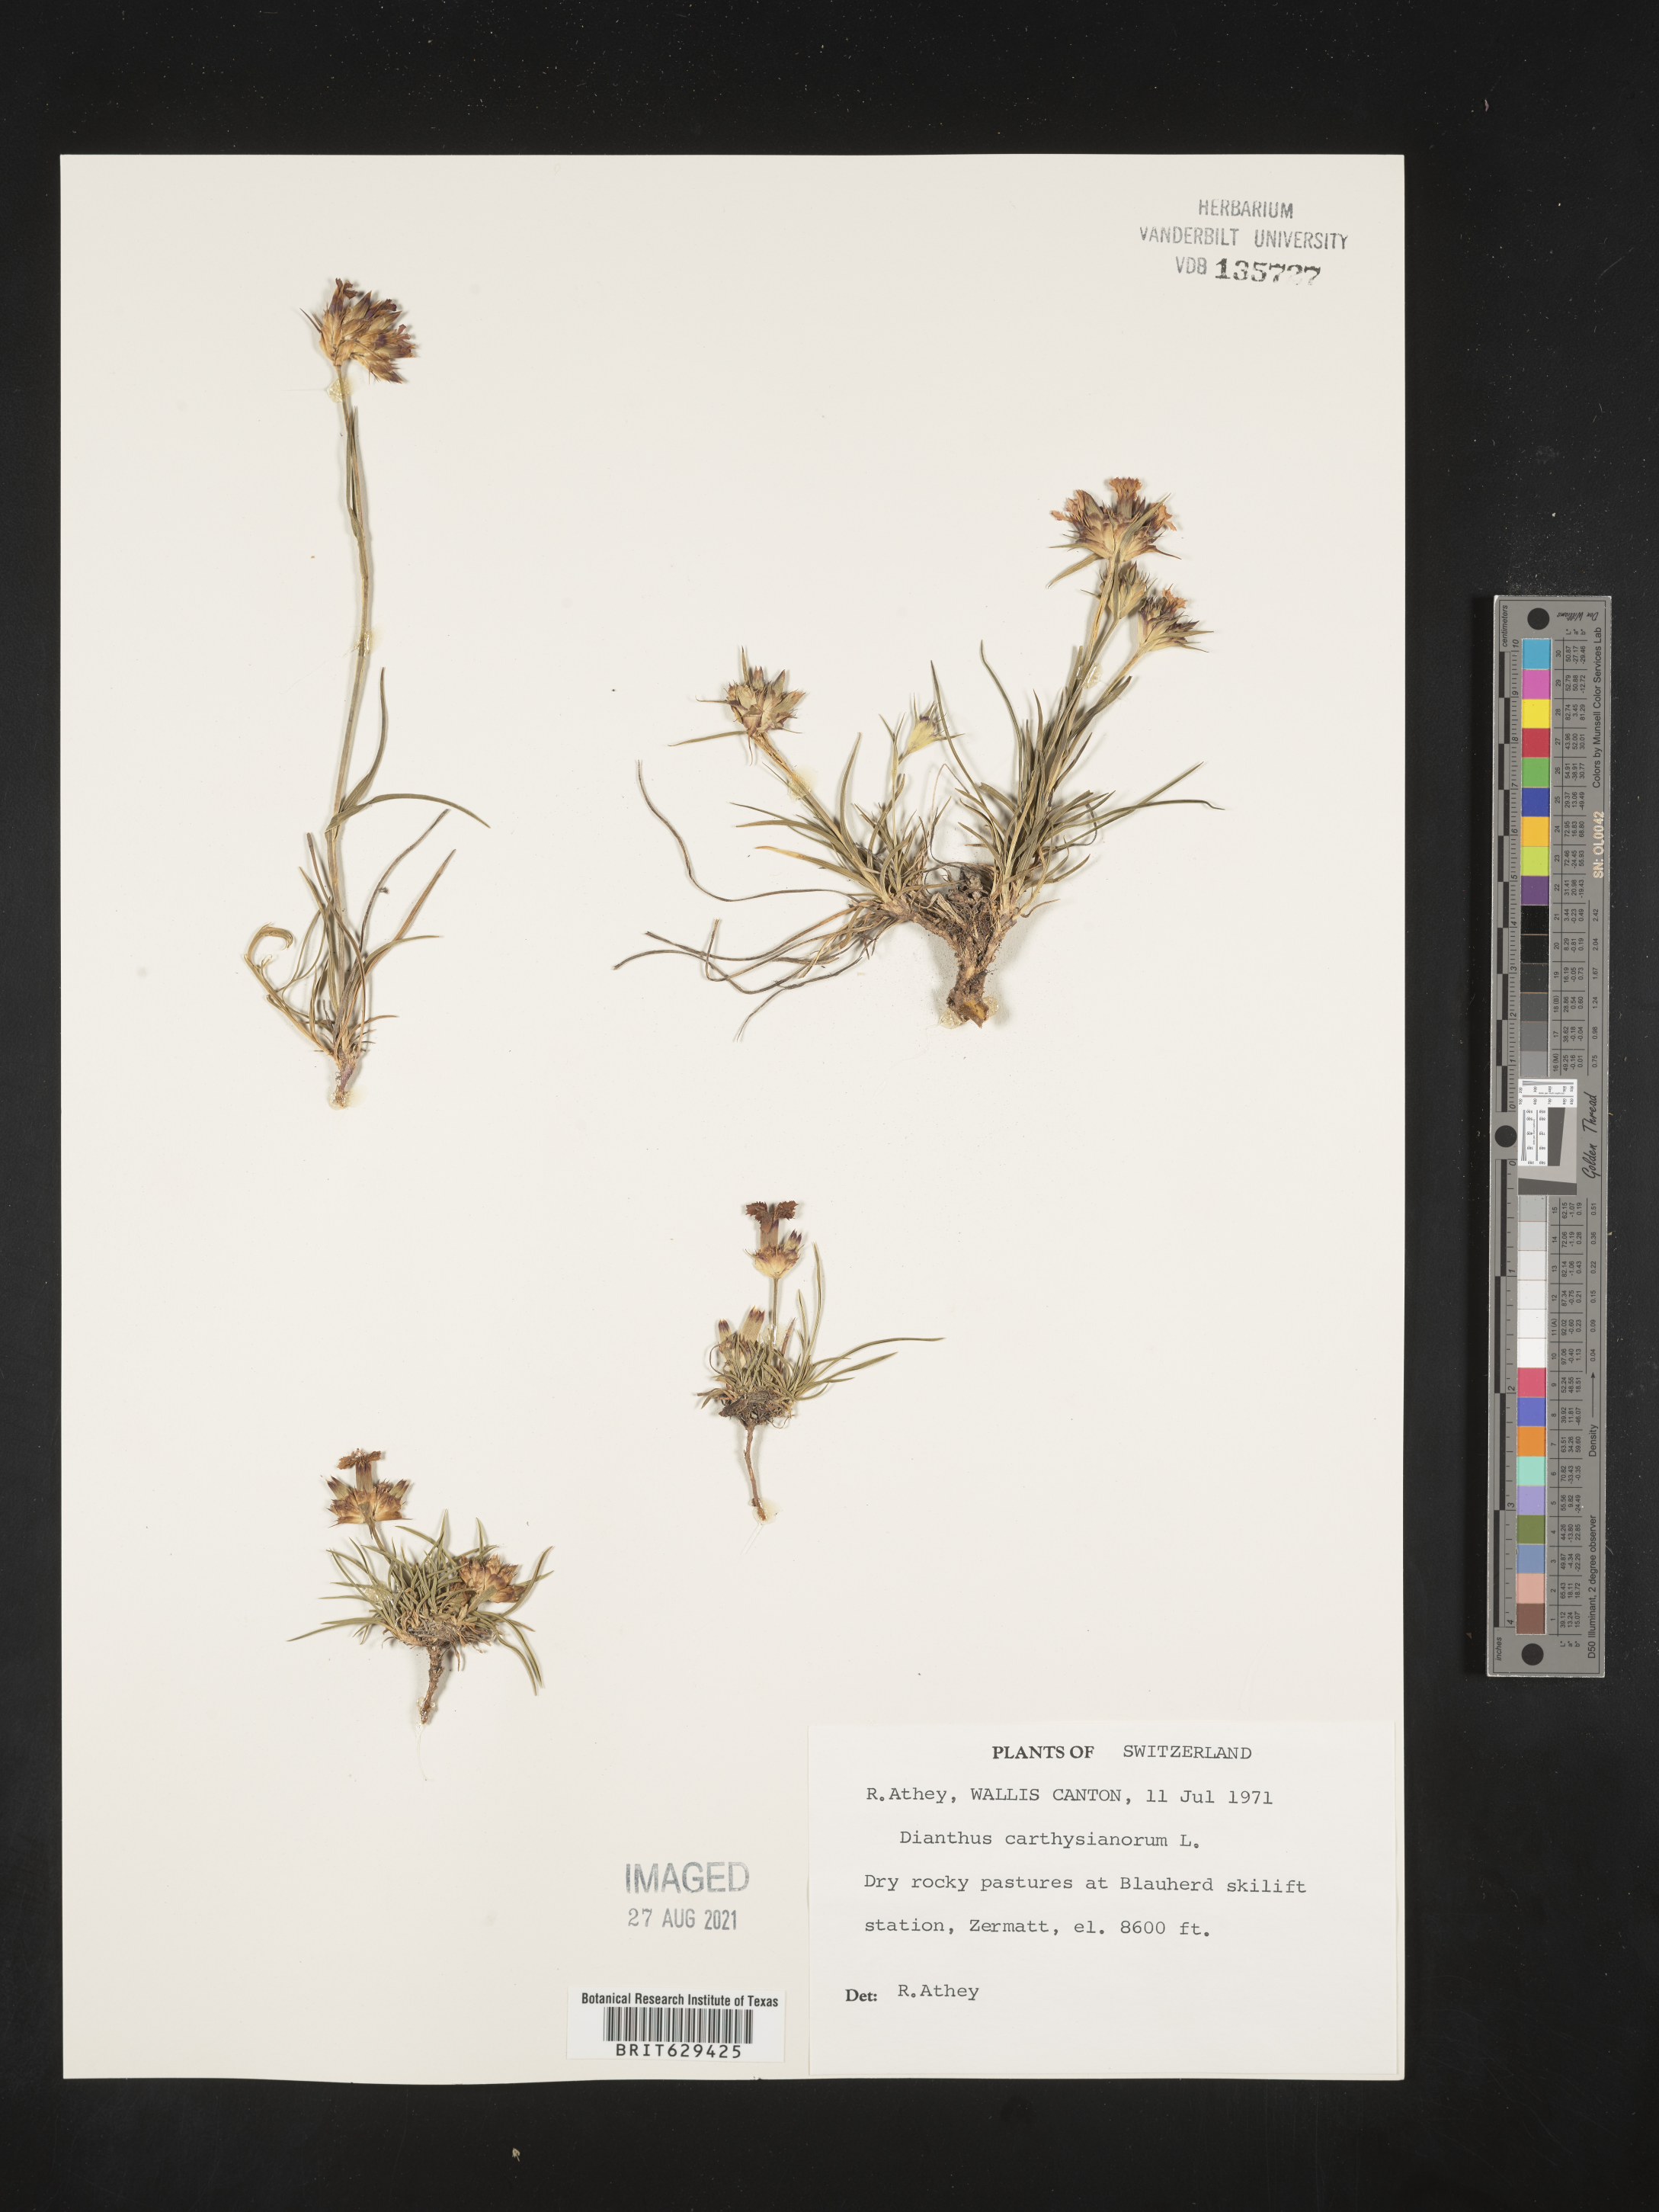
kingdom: Plantae
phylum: Tracheophyta
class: Magnoliopsida
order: Caryophyllales
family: Caryophyllaceae
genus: Dianthus
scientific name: Dianthus carthusianorum
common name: Carthusian pink
